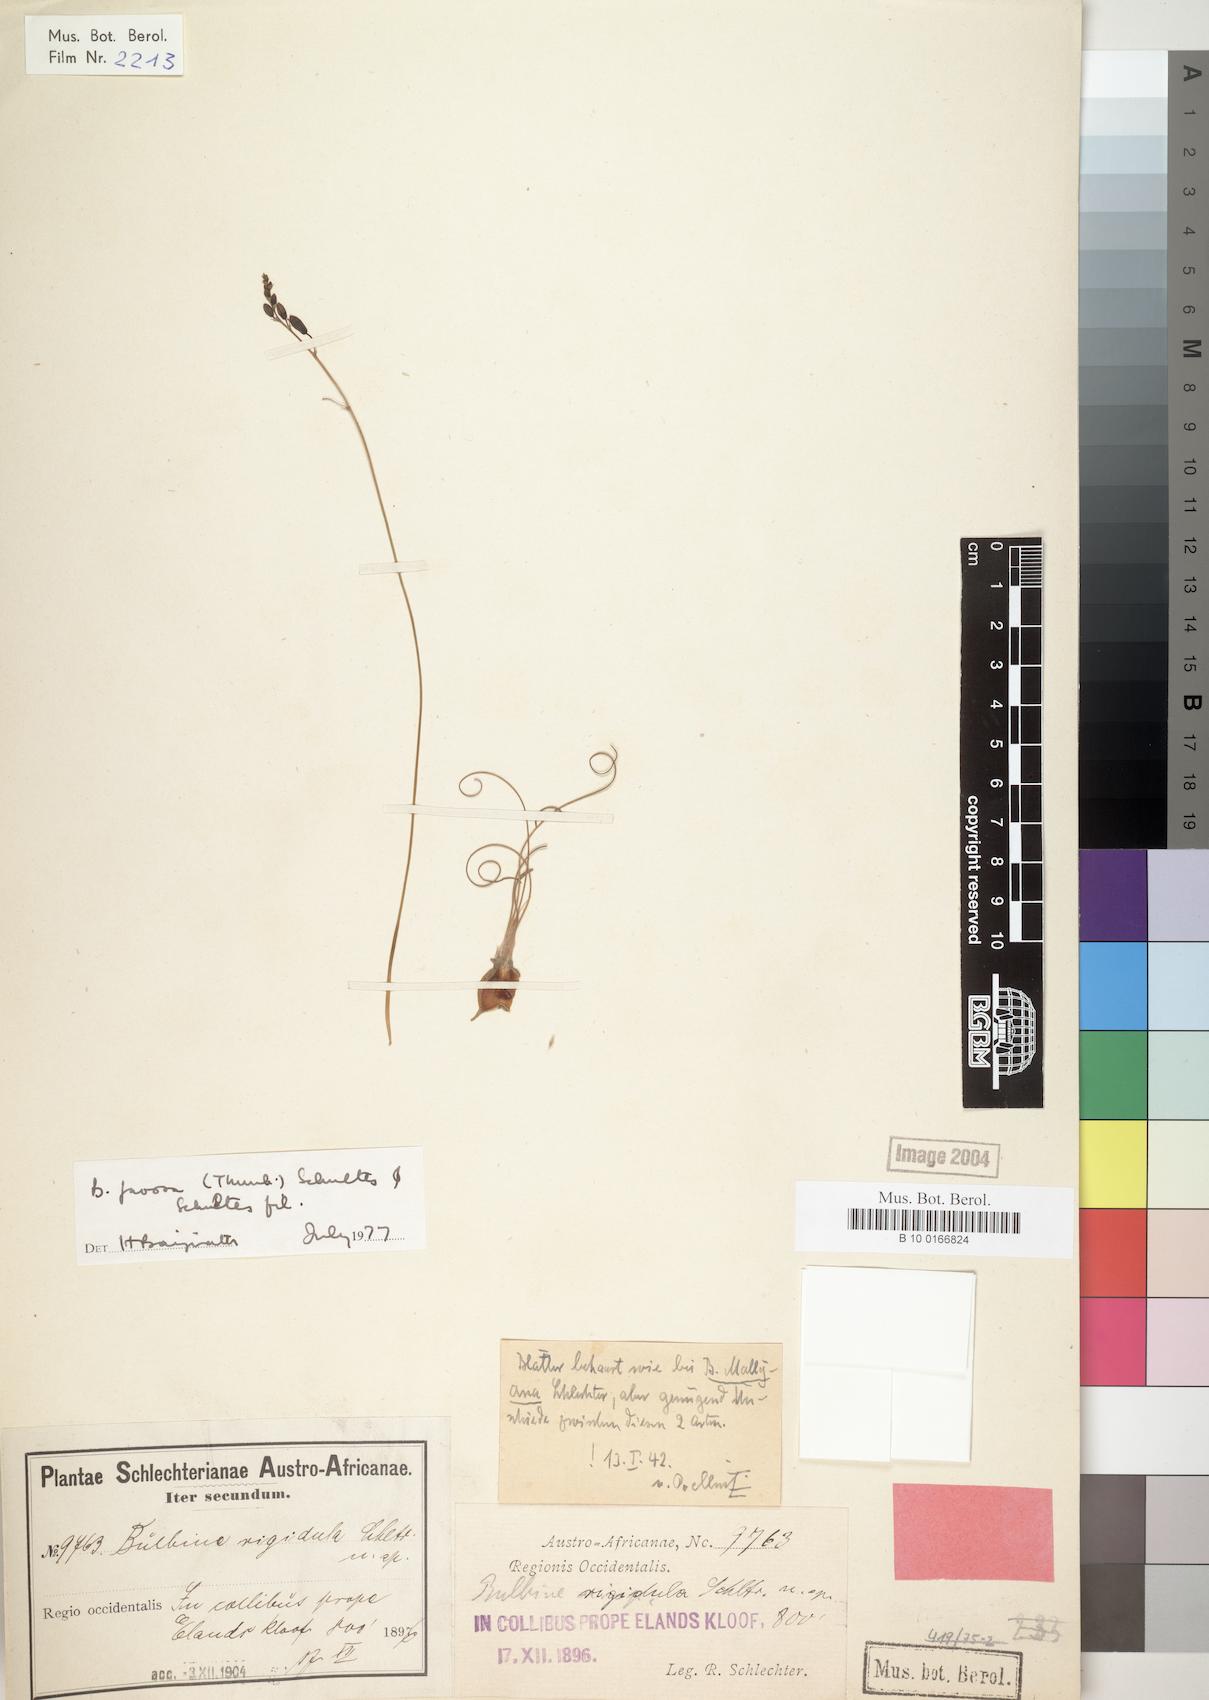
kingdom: Plantae
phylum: Tracheophyta
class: Liliopsida
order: Asparagales
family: Asphodelaceae
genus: Bulbine
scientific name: Bulbine favosa
